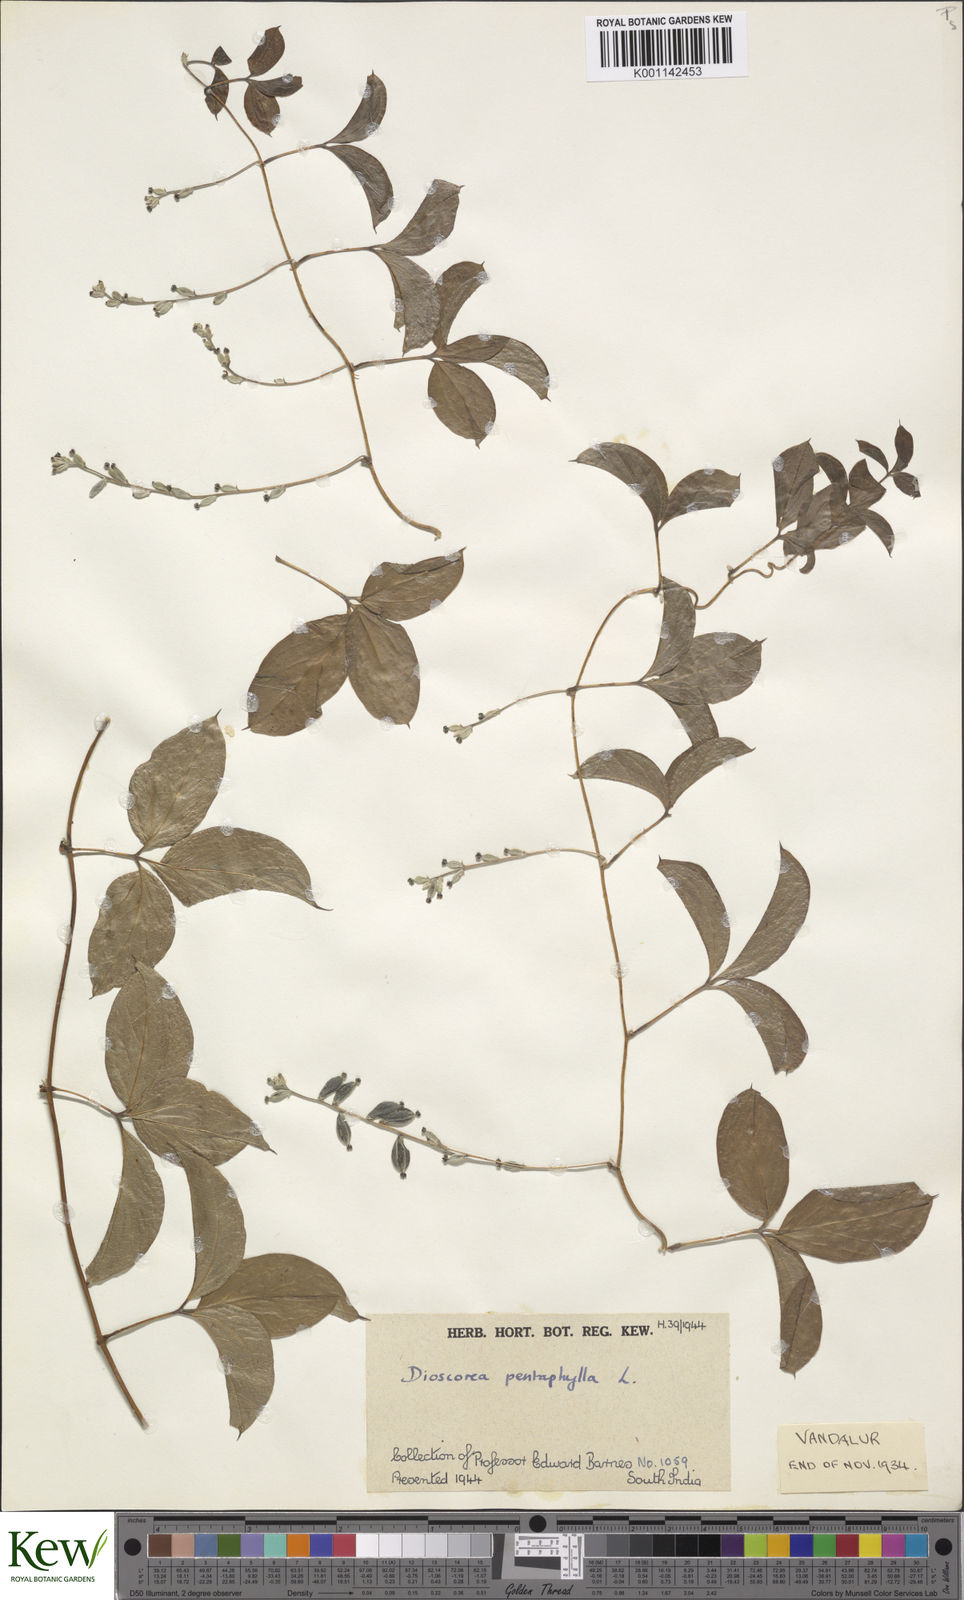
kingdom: Plantae
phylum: Tracheophyta
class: Liliopsida
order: Dioscoreales
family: Dioscoreaceae
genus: Dioscorea
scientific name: Dioscorea pentaphylla
